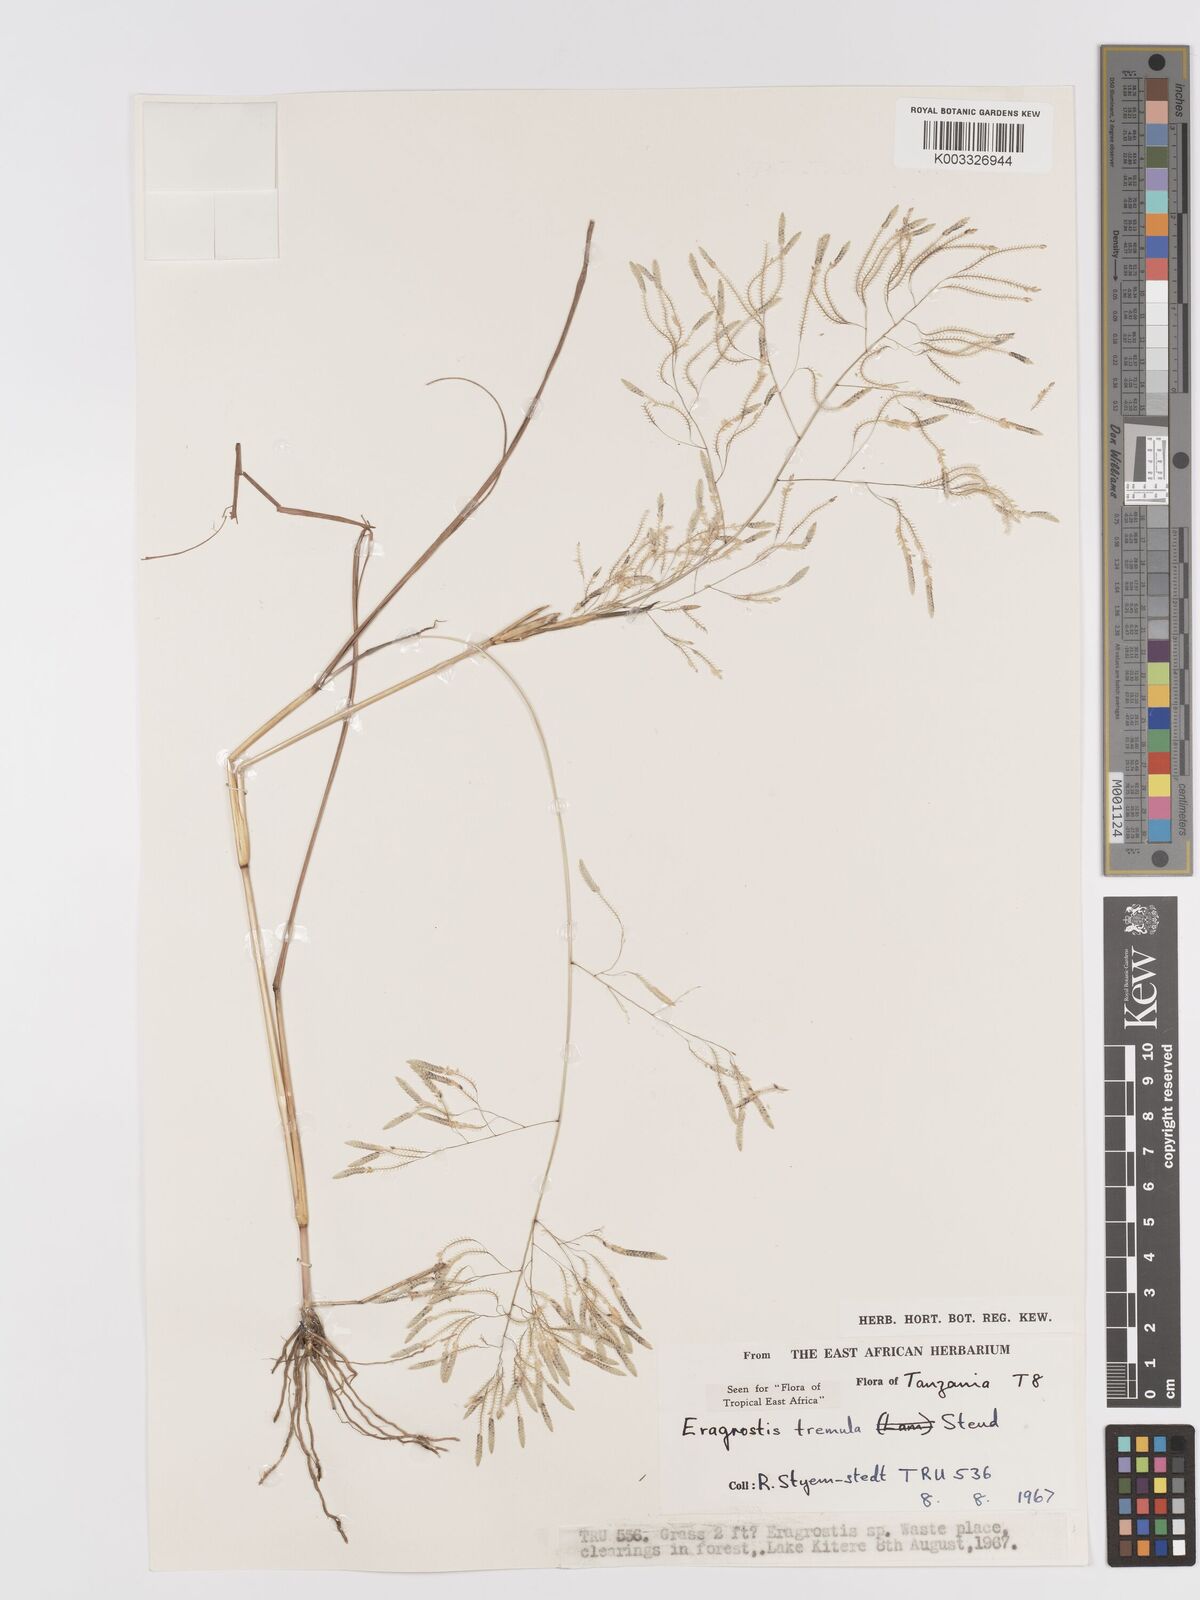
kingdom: Plantae
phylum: Tracheophyta
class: Liliopsida
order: Poales
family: Poaceae
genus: Eragrostis
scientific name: Eragrostis tremula
